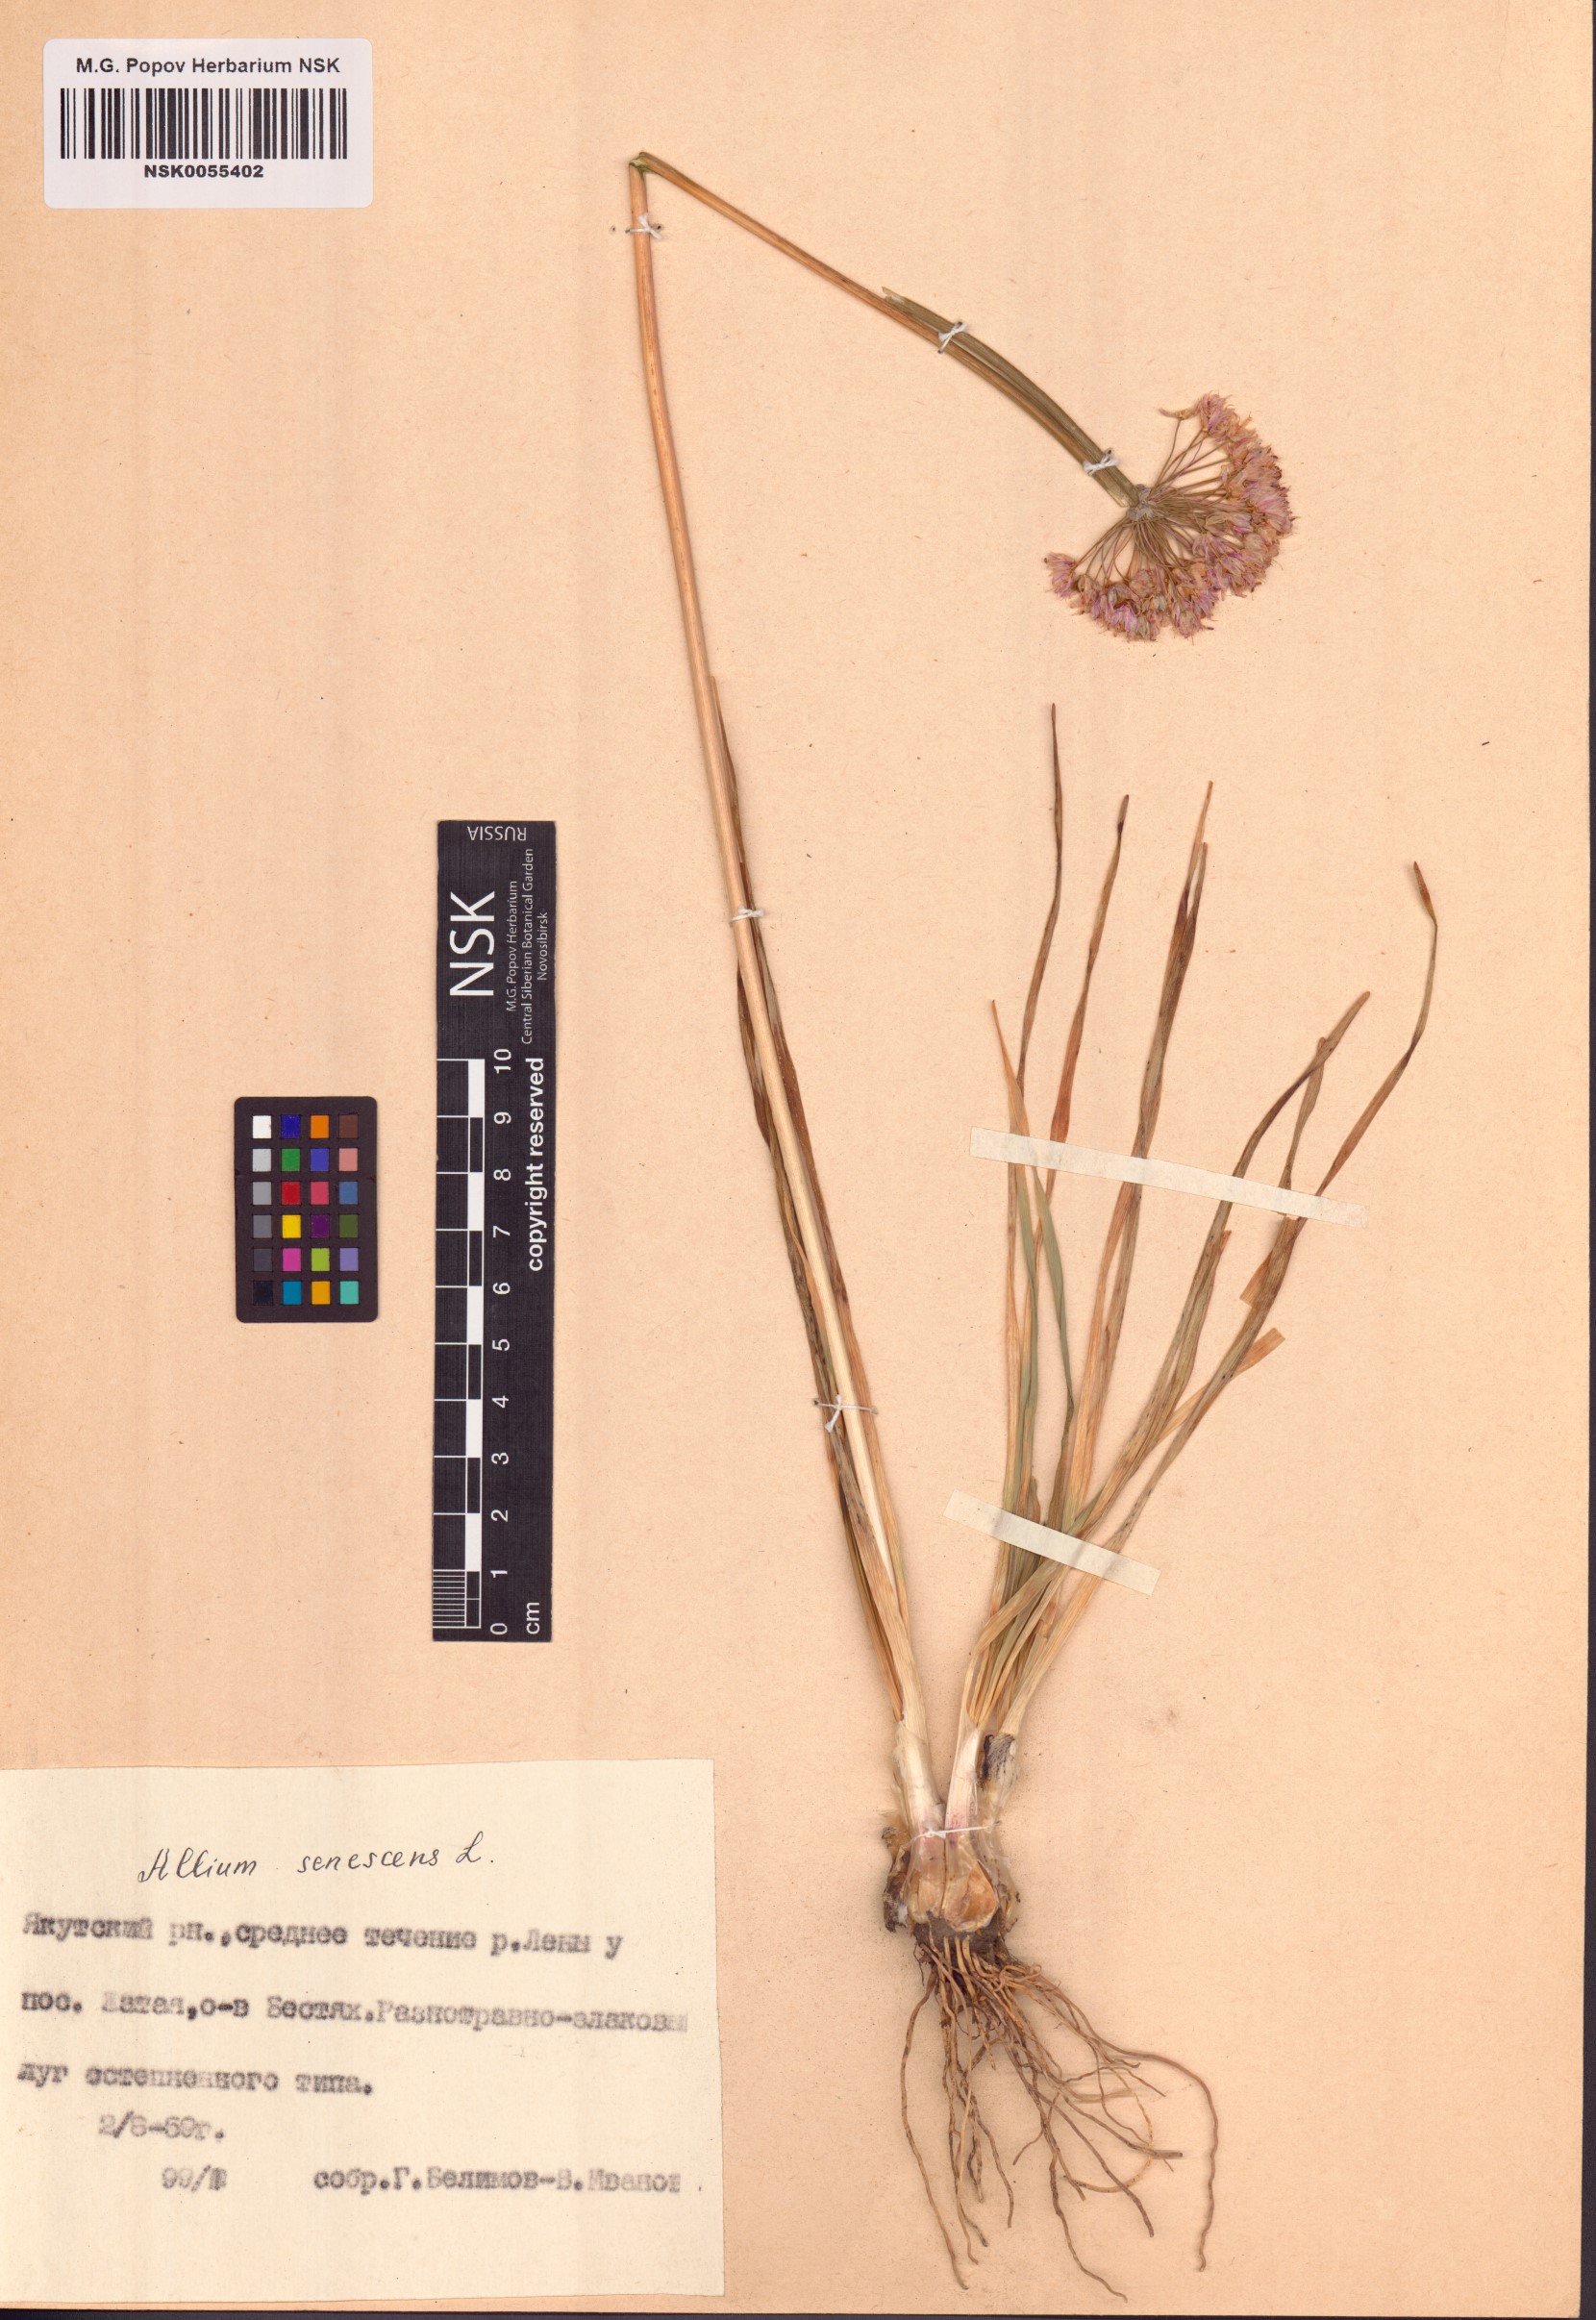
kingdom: Plantae
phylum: Tracheophyta
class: Liliopsida
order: Asparagales
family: Amaryllidaceae
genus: Allium
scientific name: Allium senescens
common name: German garlic
